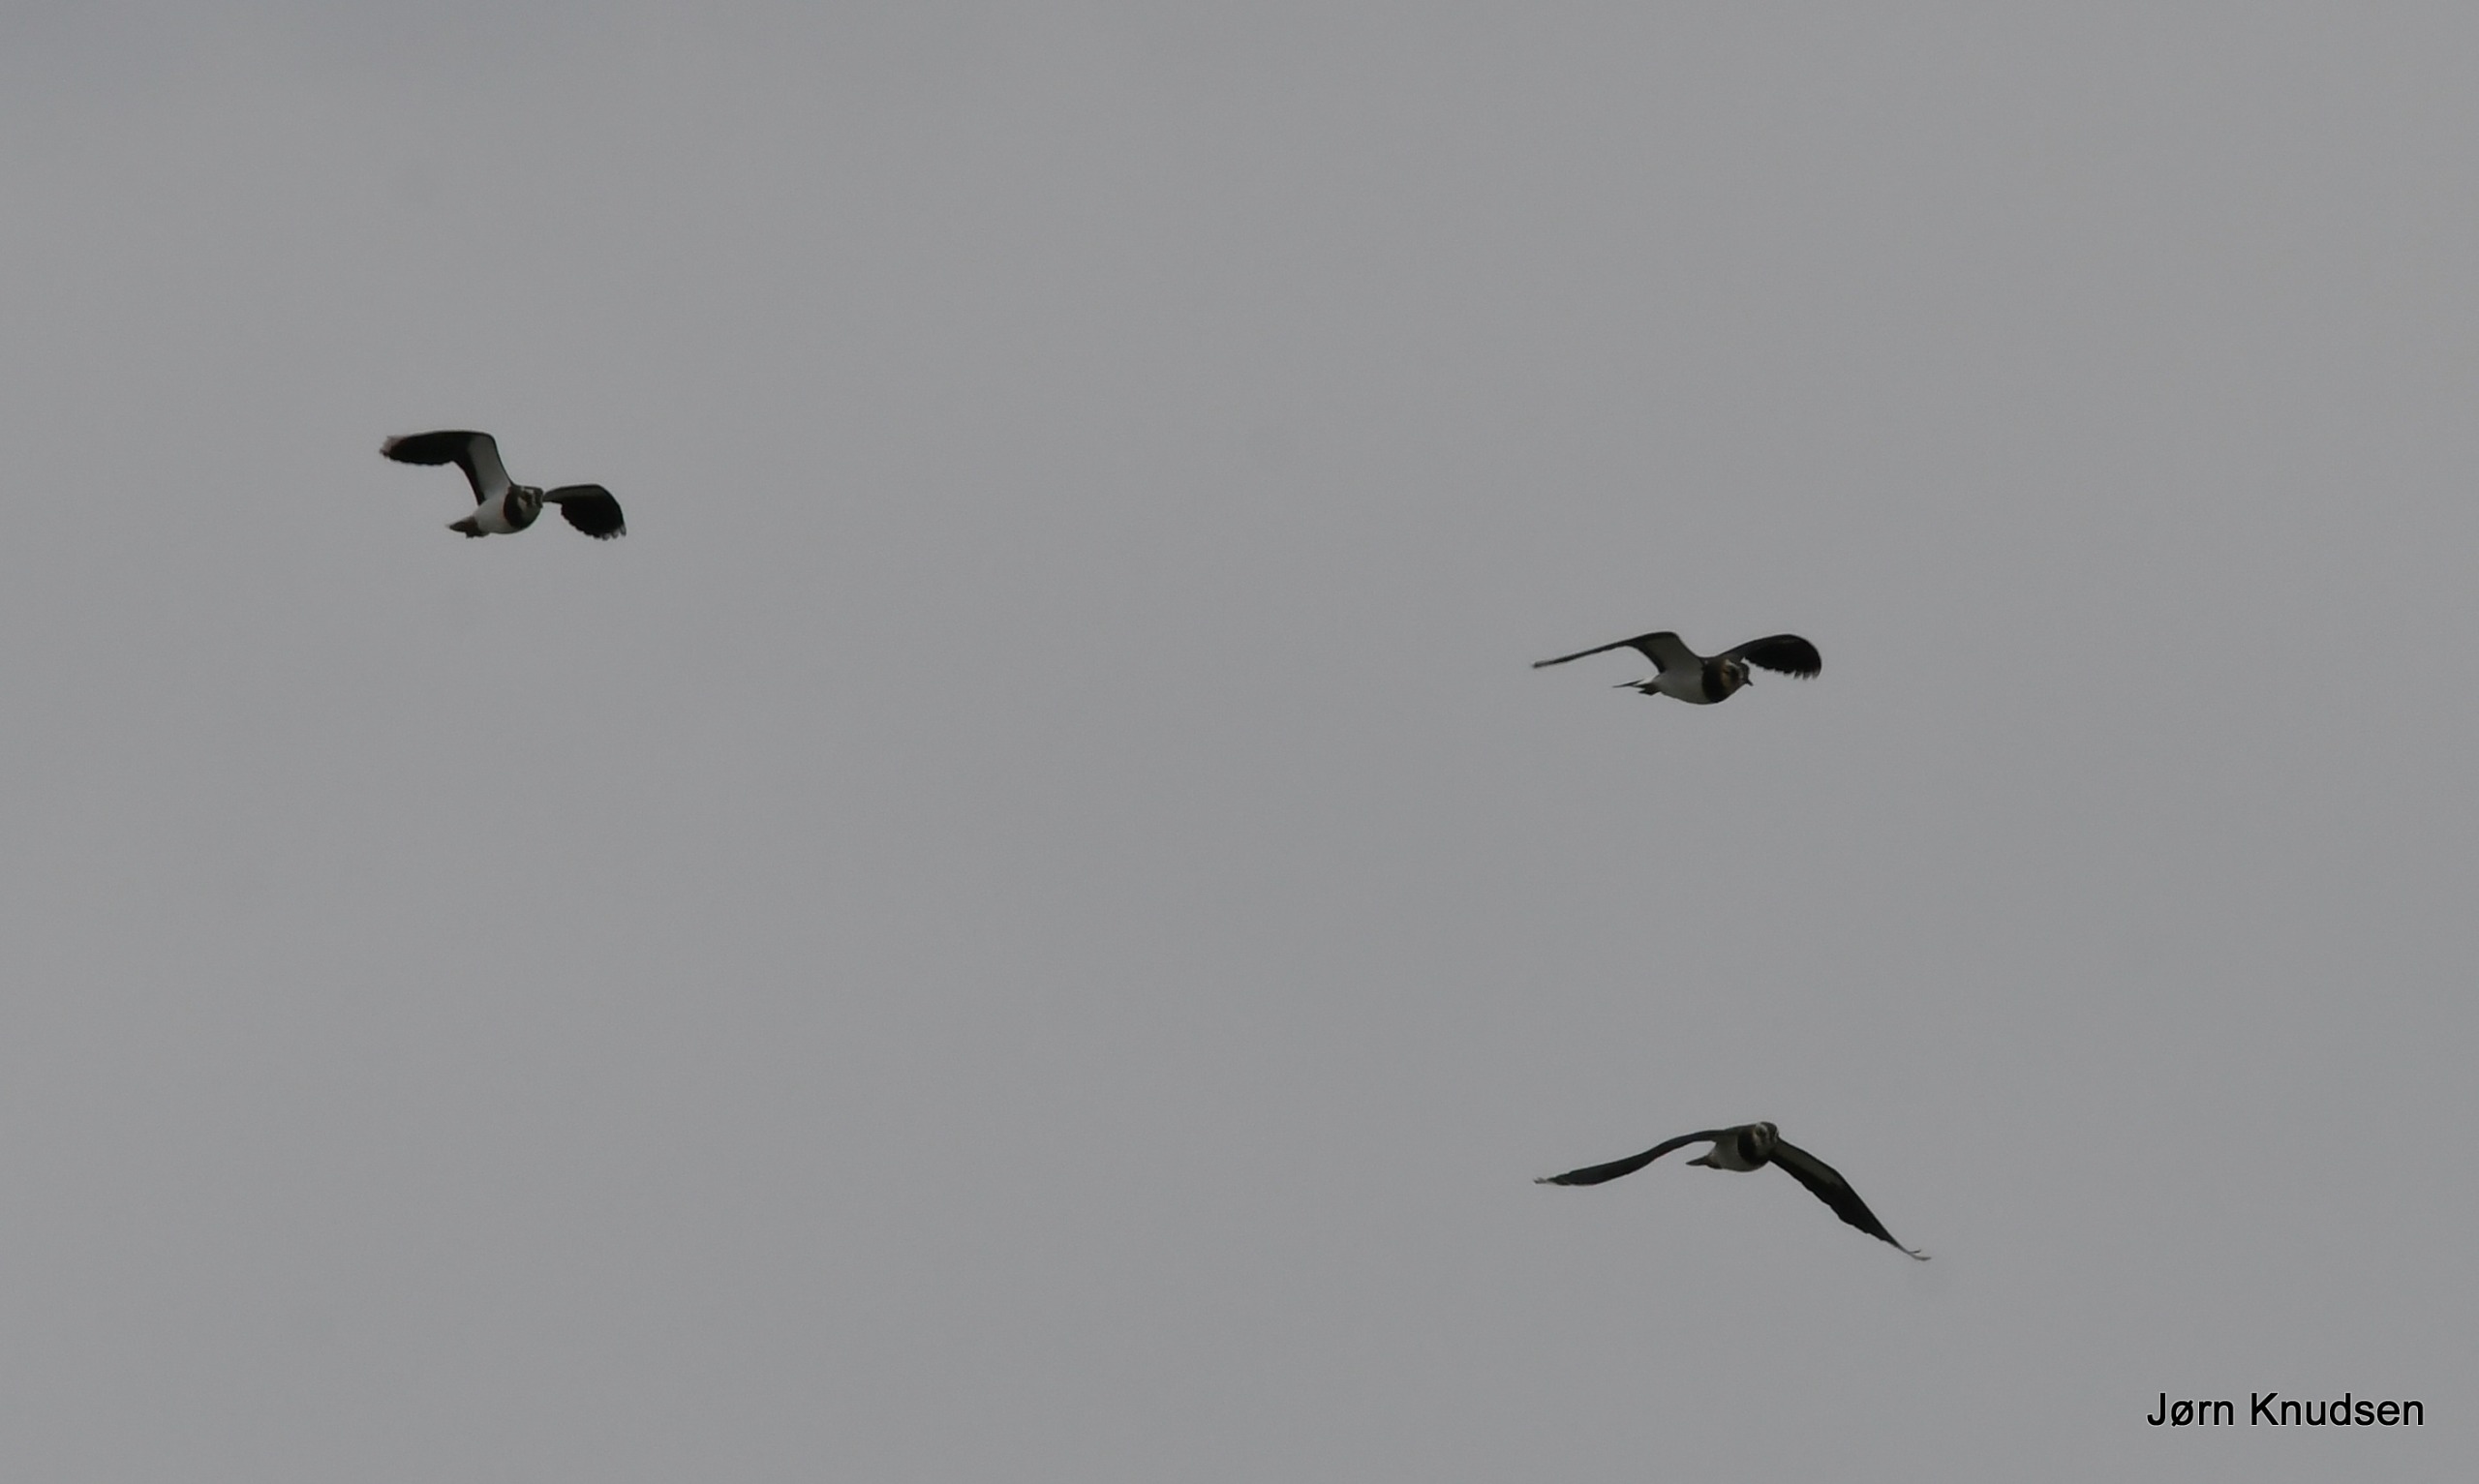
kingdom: Animalia
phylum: Chordata
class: Aves
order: Charadriiformes
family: Charadriidae
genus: Vanellus
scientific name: Vanellus vanellus
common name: Vibe
